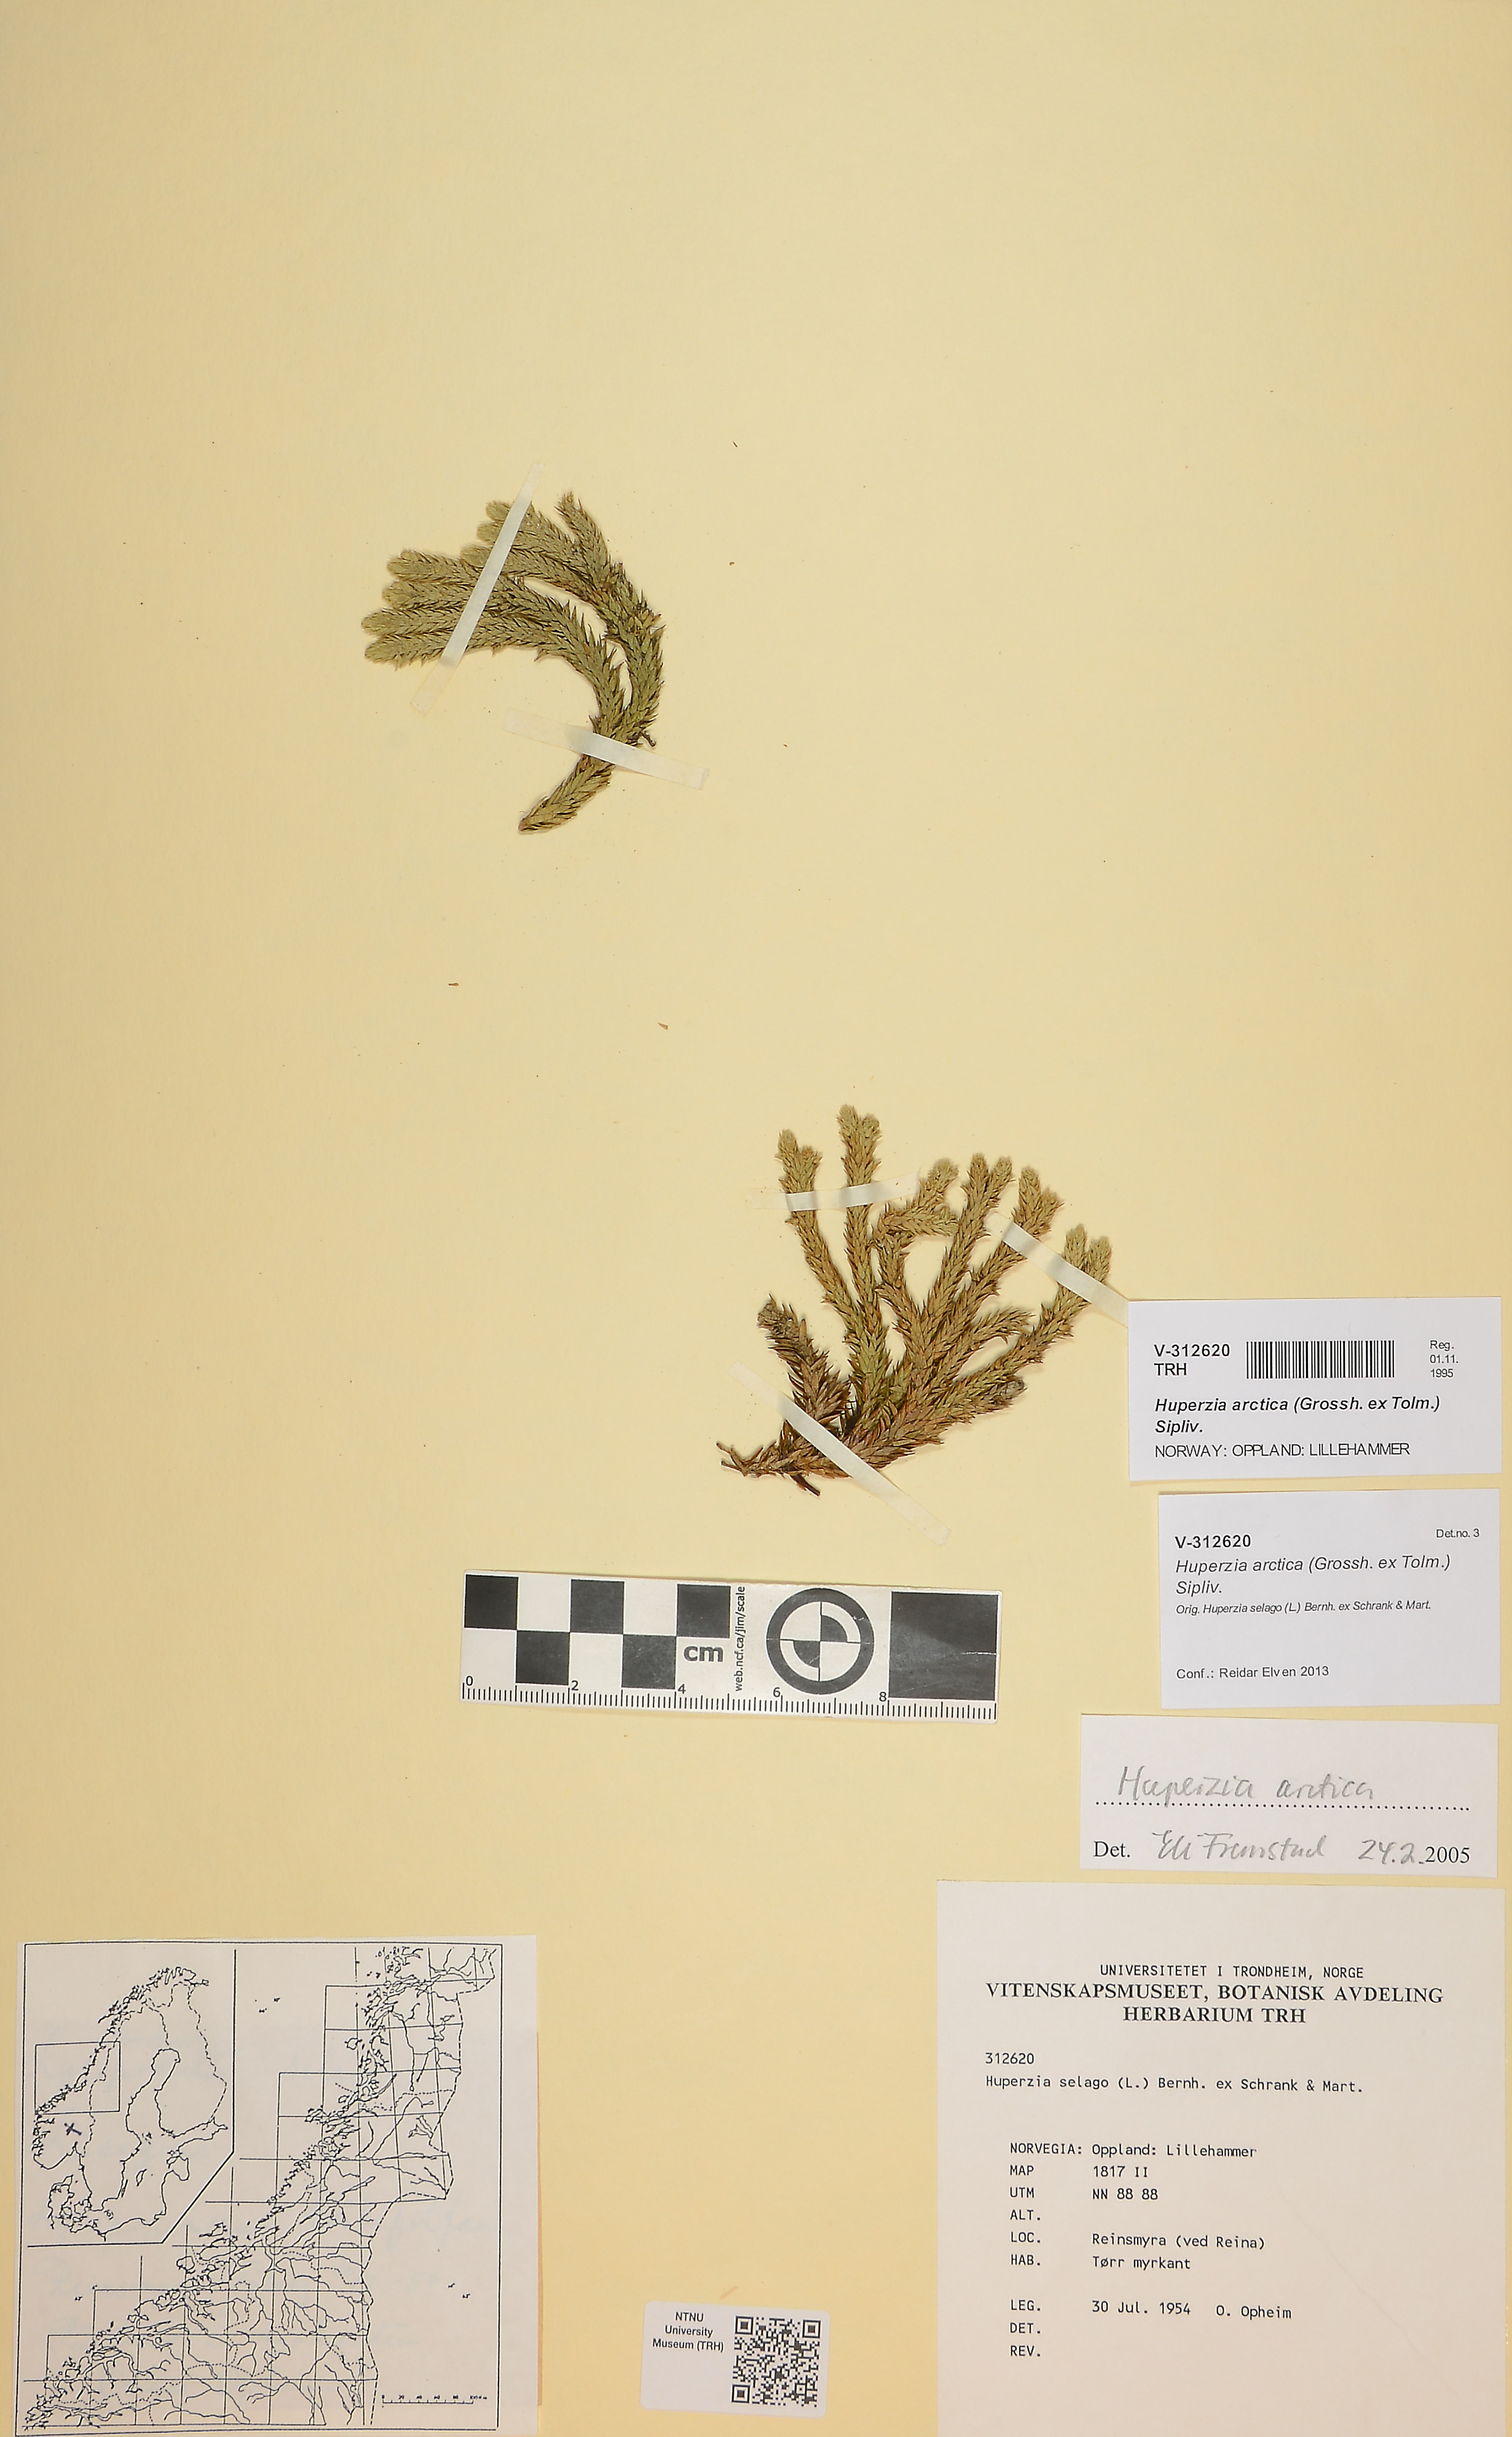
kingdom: Plantae
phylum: Tracheophyta
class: Lycopodiopsida
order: Lycopodiales
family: Lycopodiaceae
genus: Huperzia
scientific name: Huperzia selago
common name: Northern firmoss
